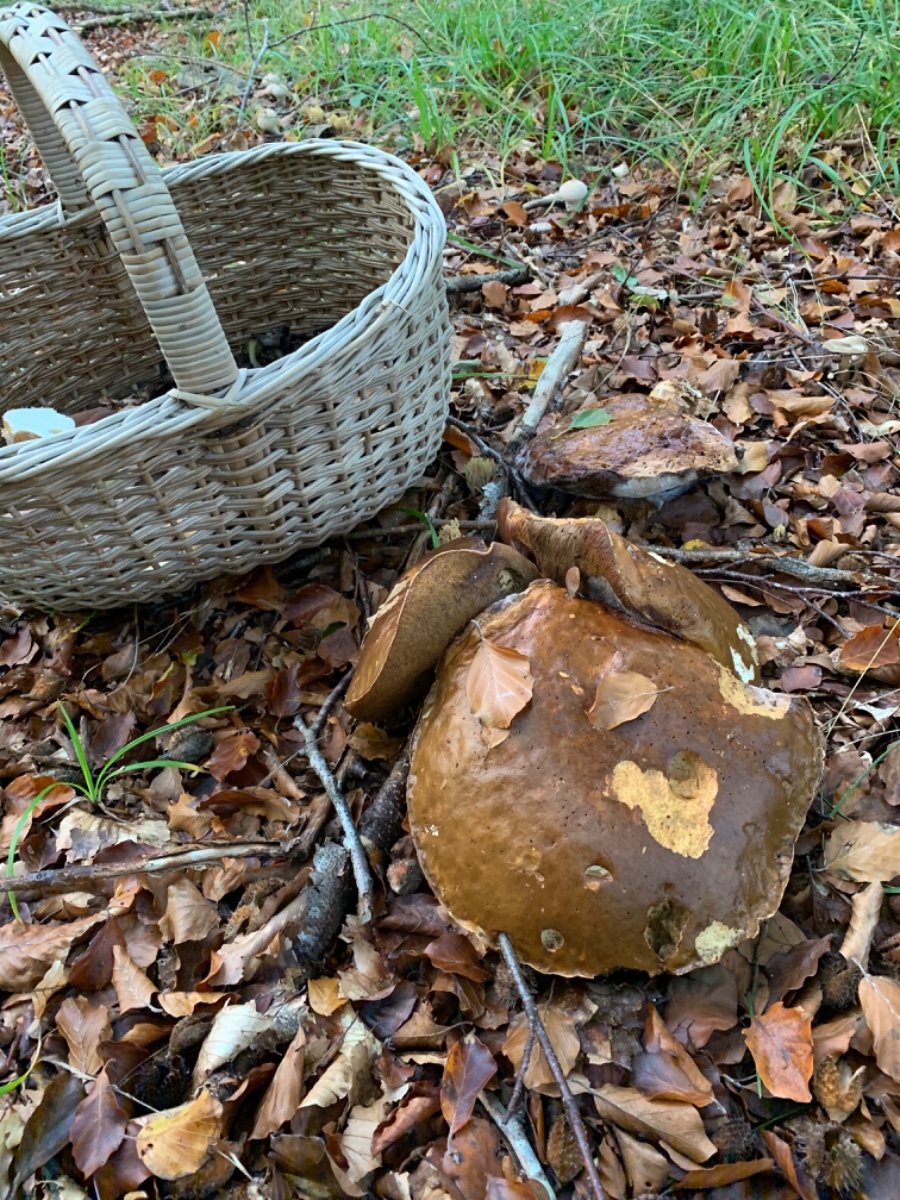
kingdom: Fungi
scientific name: Fungi
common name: bronze-rørhat
